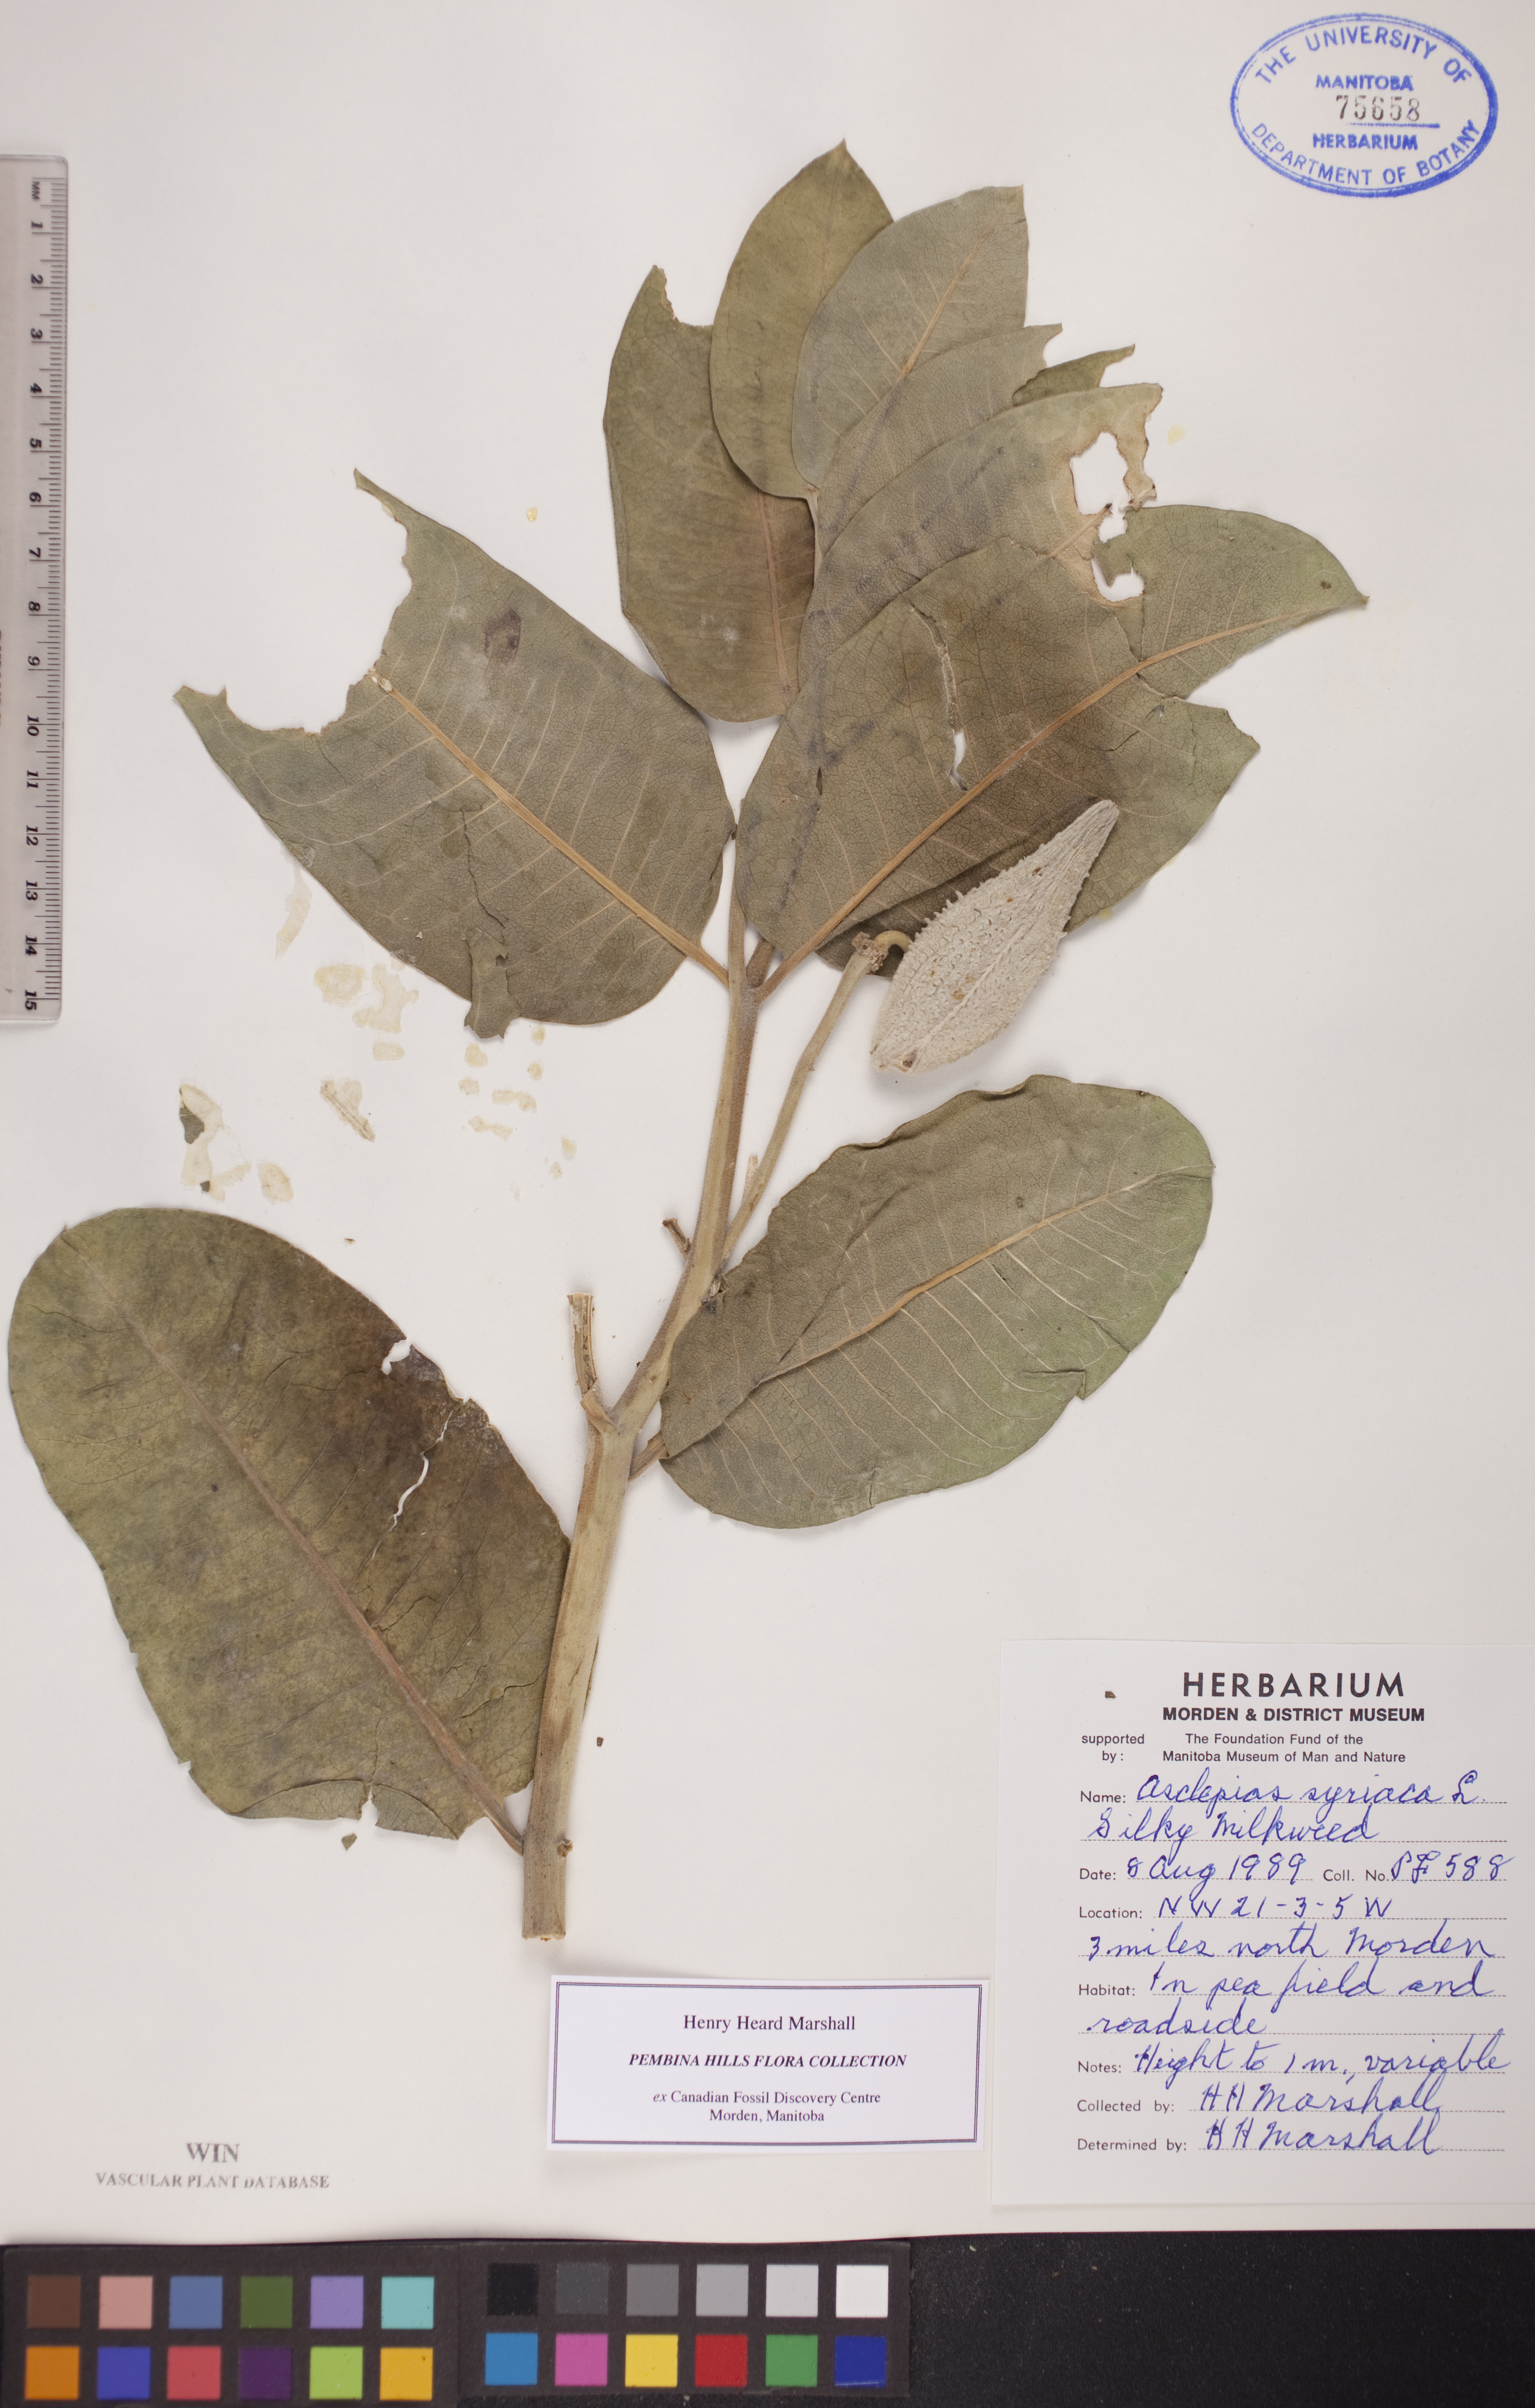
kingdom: Plantae
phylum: Tracheophyta
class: Magnoliopsida
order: Gentianales
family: Apocynaceae
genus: Asclepias
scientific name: Asclepias syriaca
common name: Common milkweed
